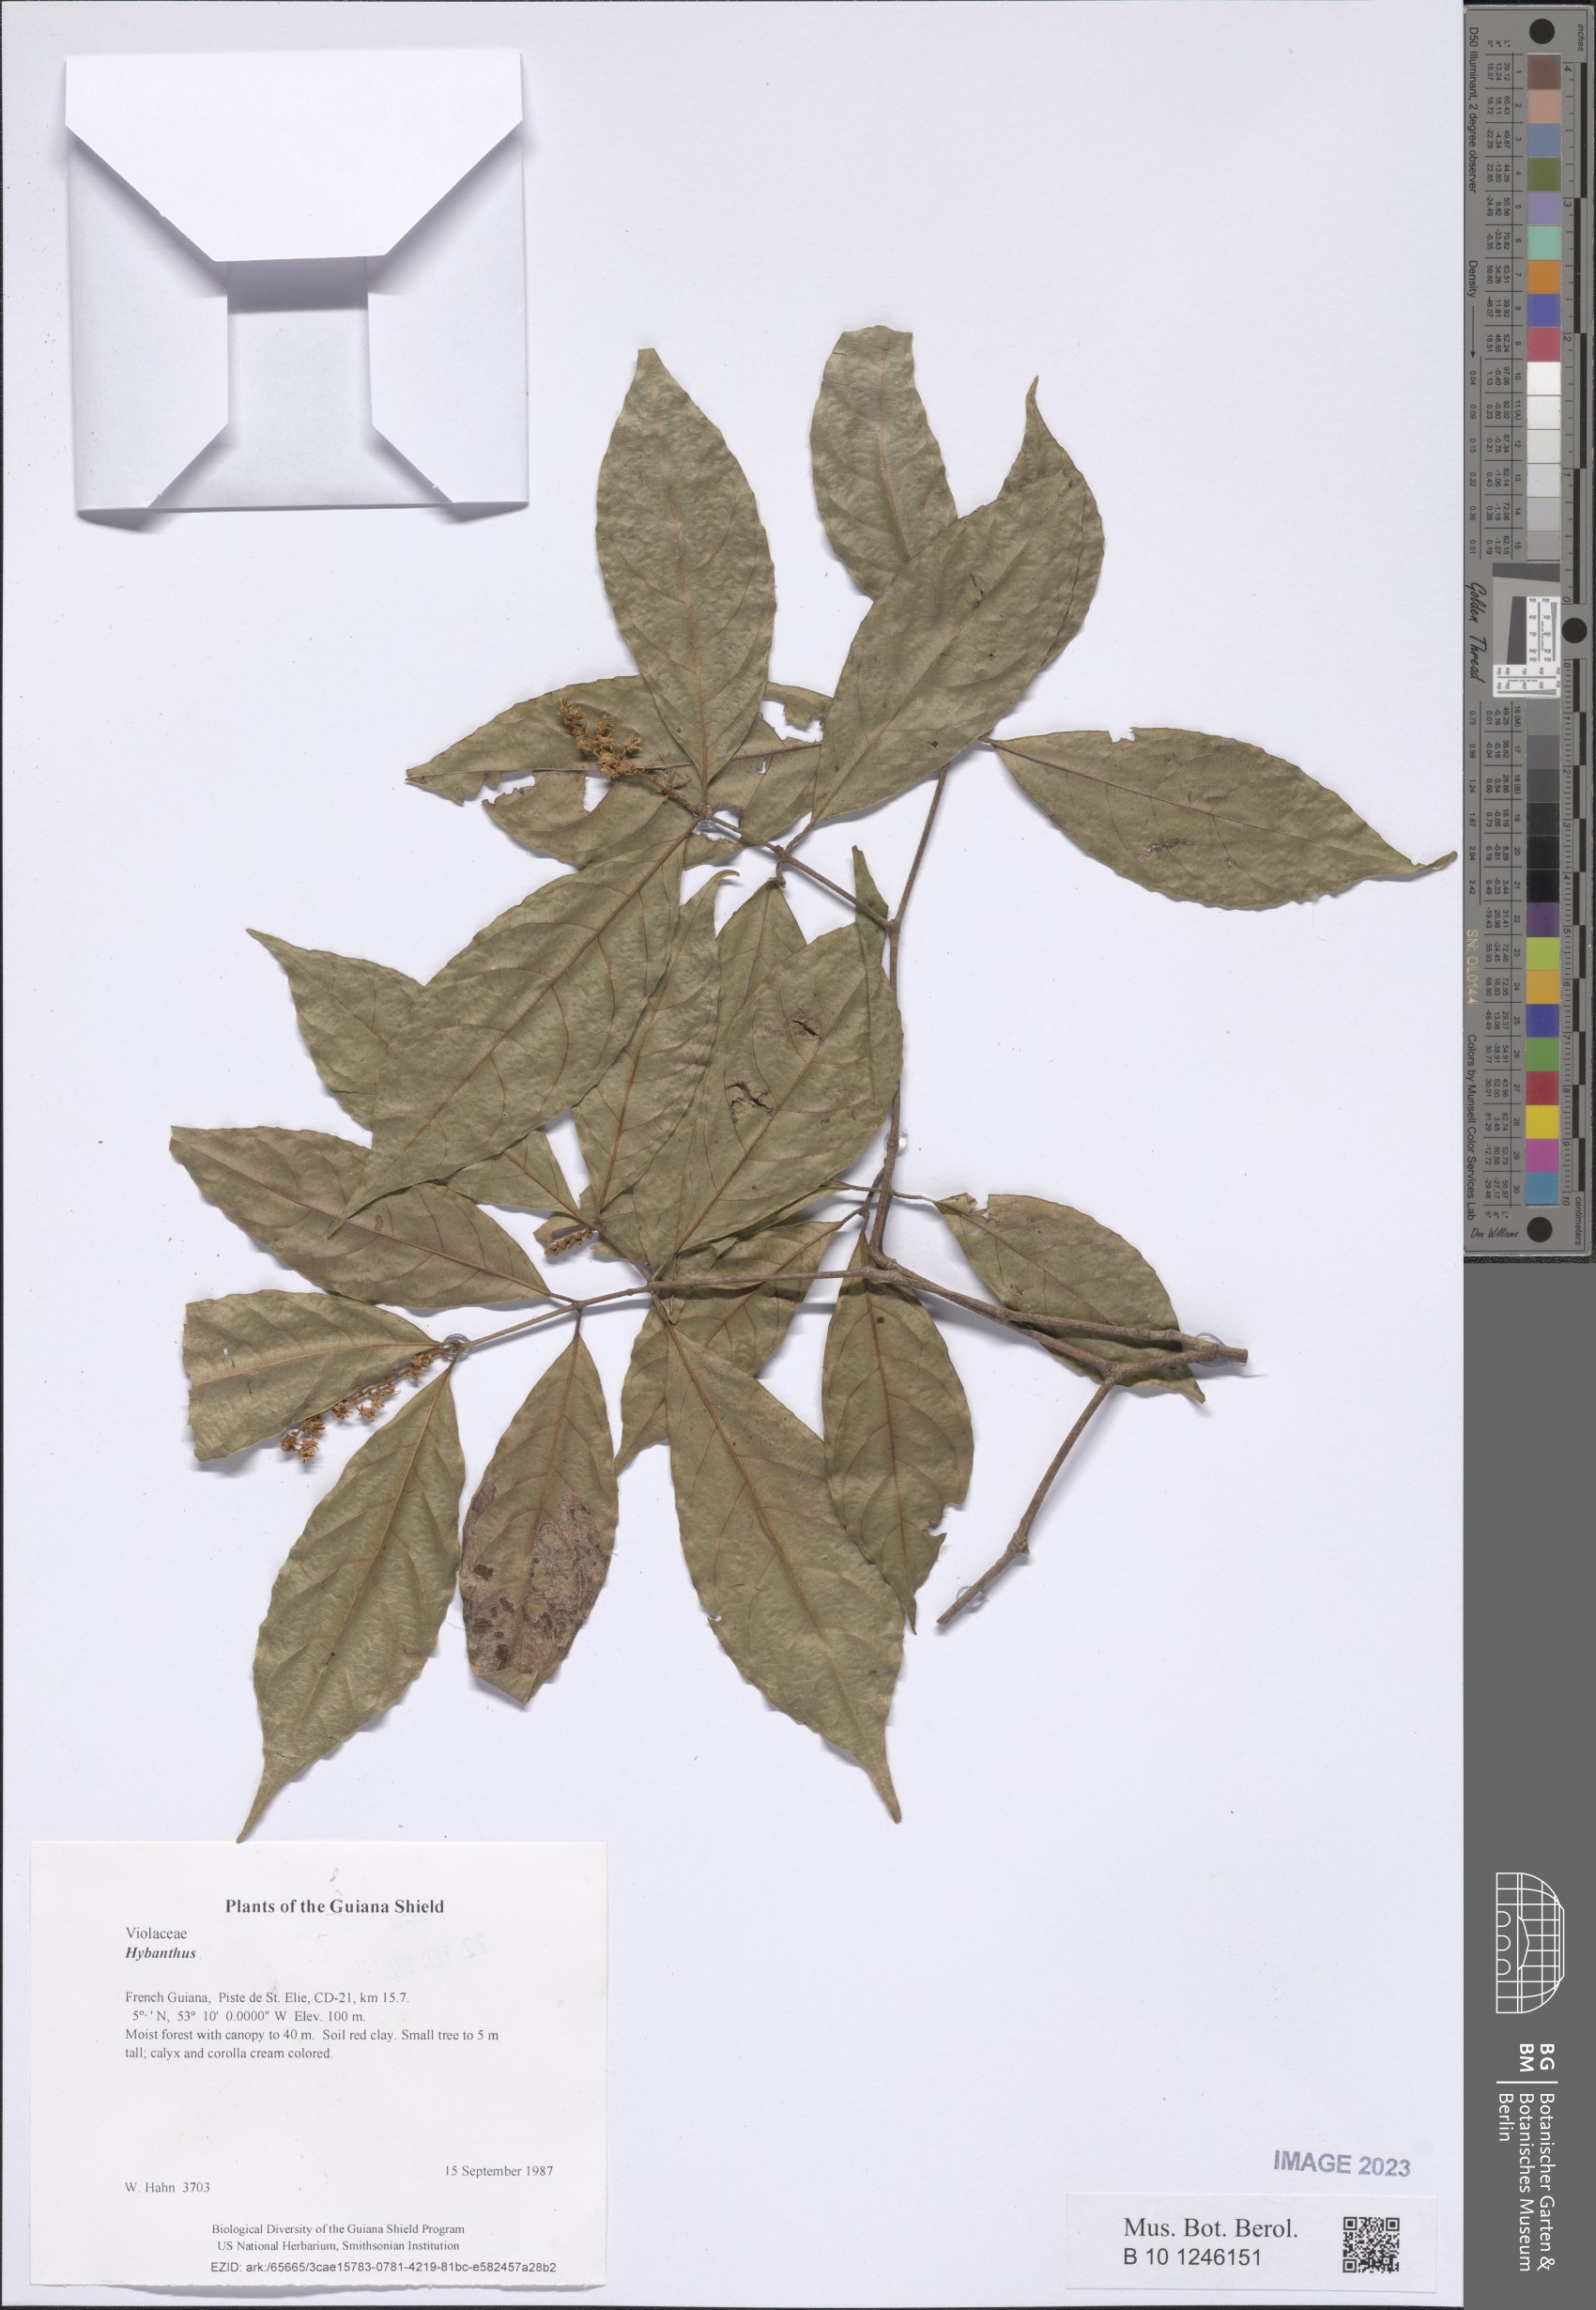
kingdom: Plantae
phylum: Tracheophyta
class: Magnoliopsida
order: Malpighiales
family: Violaceae
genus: Hybanthus
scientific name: Hybanthus
